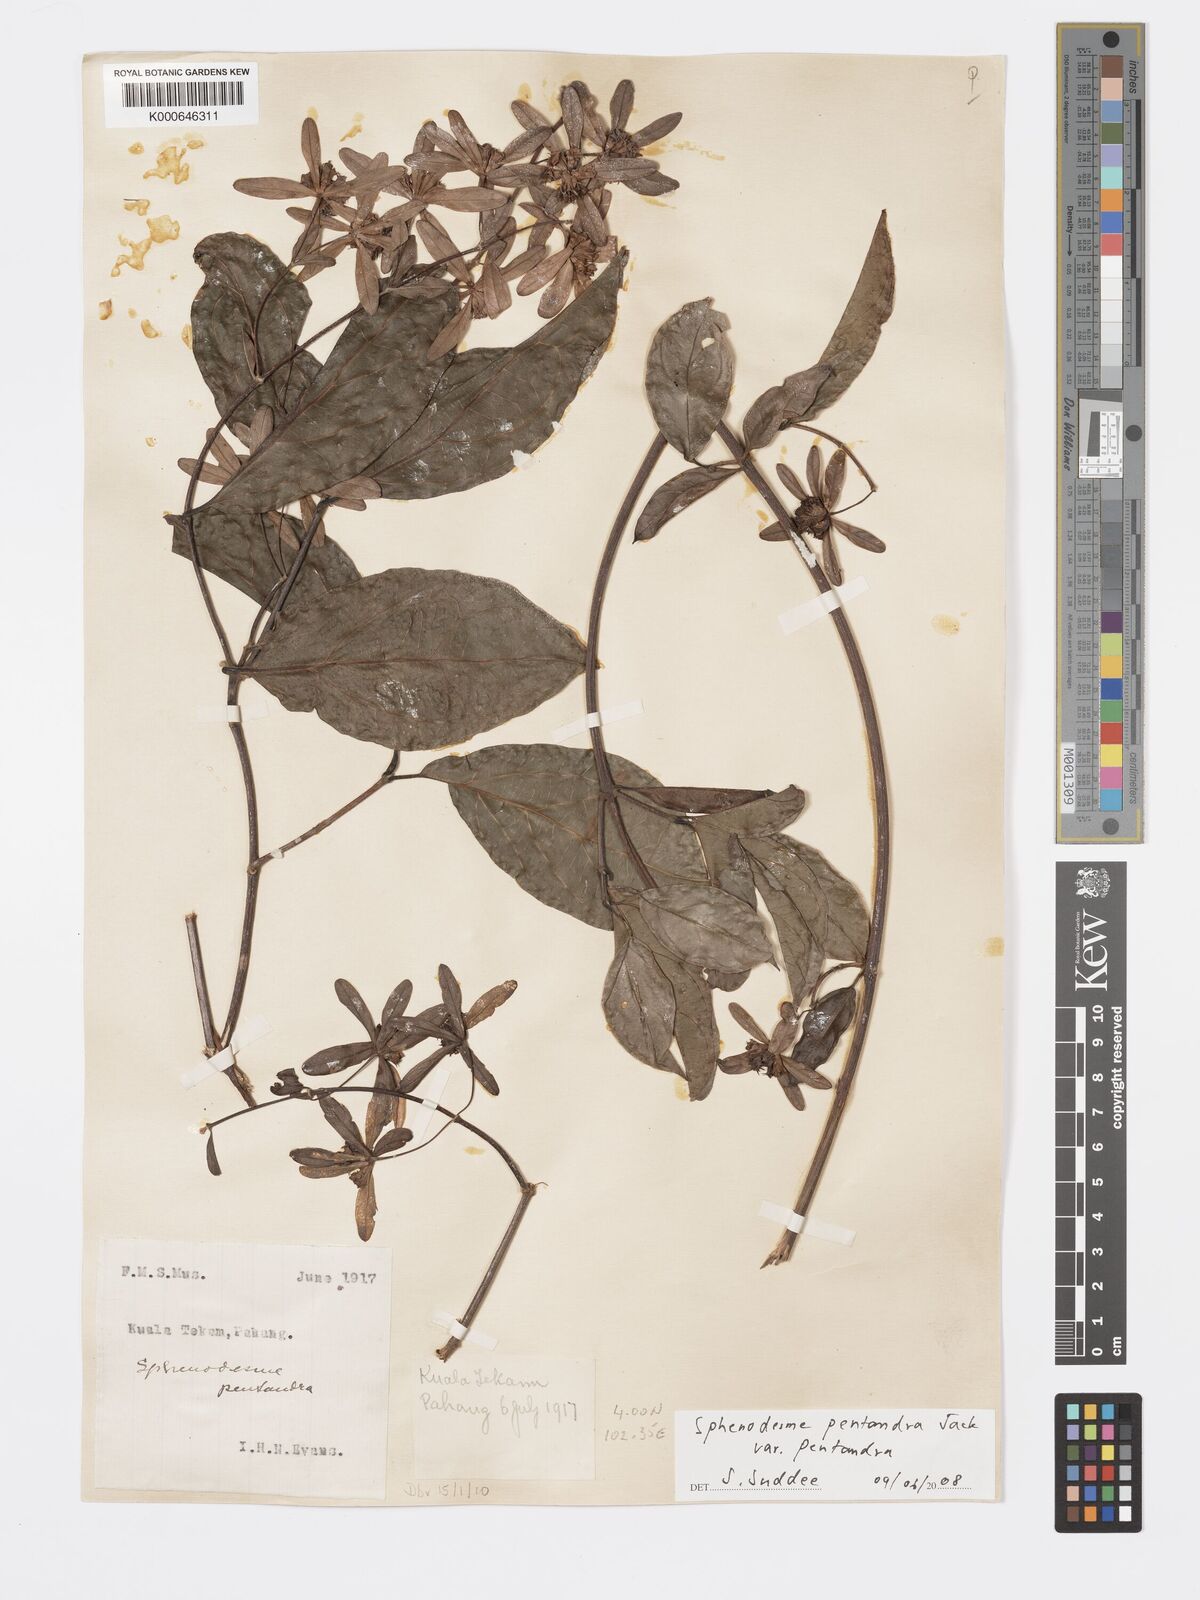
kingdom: Plantae
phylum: Tracheophyta
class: Magnoliopsida
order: Lamiales
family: Lamiaceae
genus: Sphenodesme
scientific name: Sphenodesme pentandra
